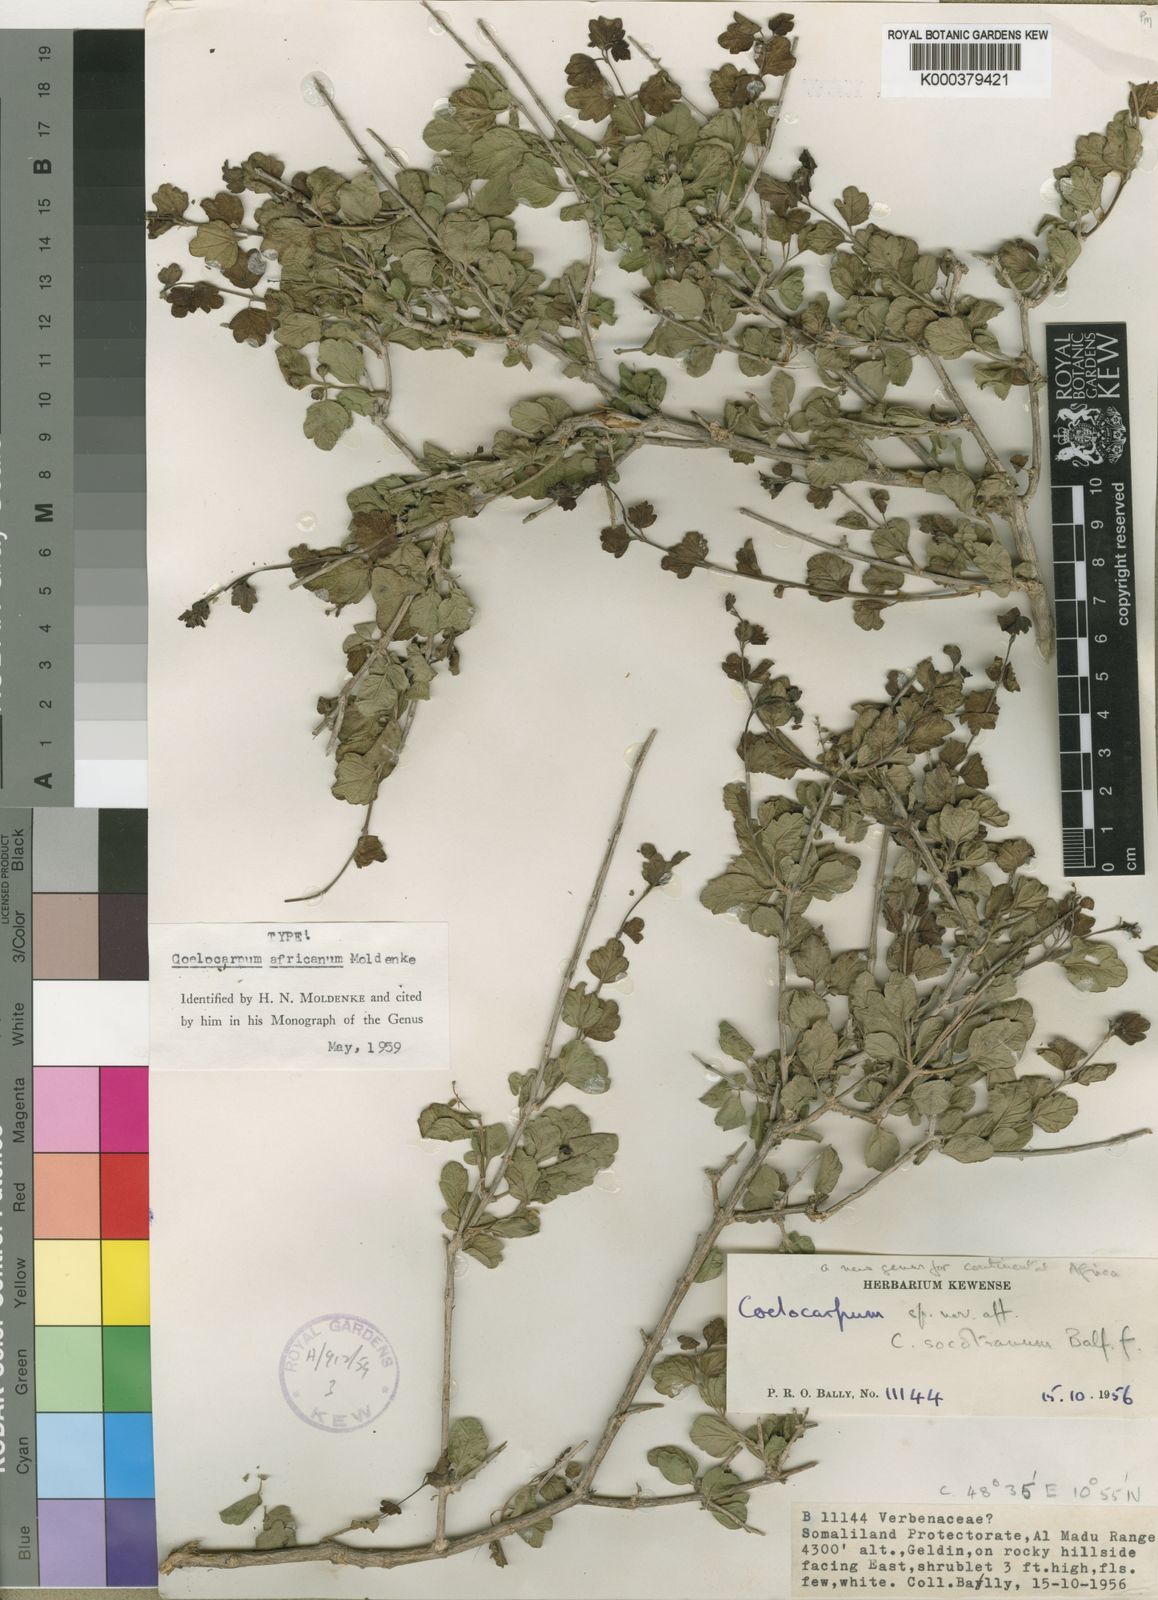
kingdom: Plantae
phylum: Tracheophyta
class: Magnoliopsida
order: Lamiales
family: Verbenaceae
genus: Coelocarpum
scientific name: Coelocarpum africanum
